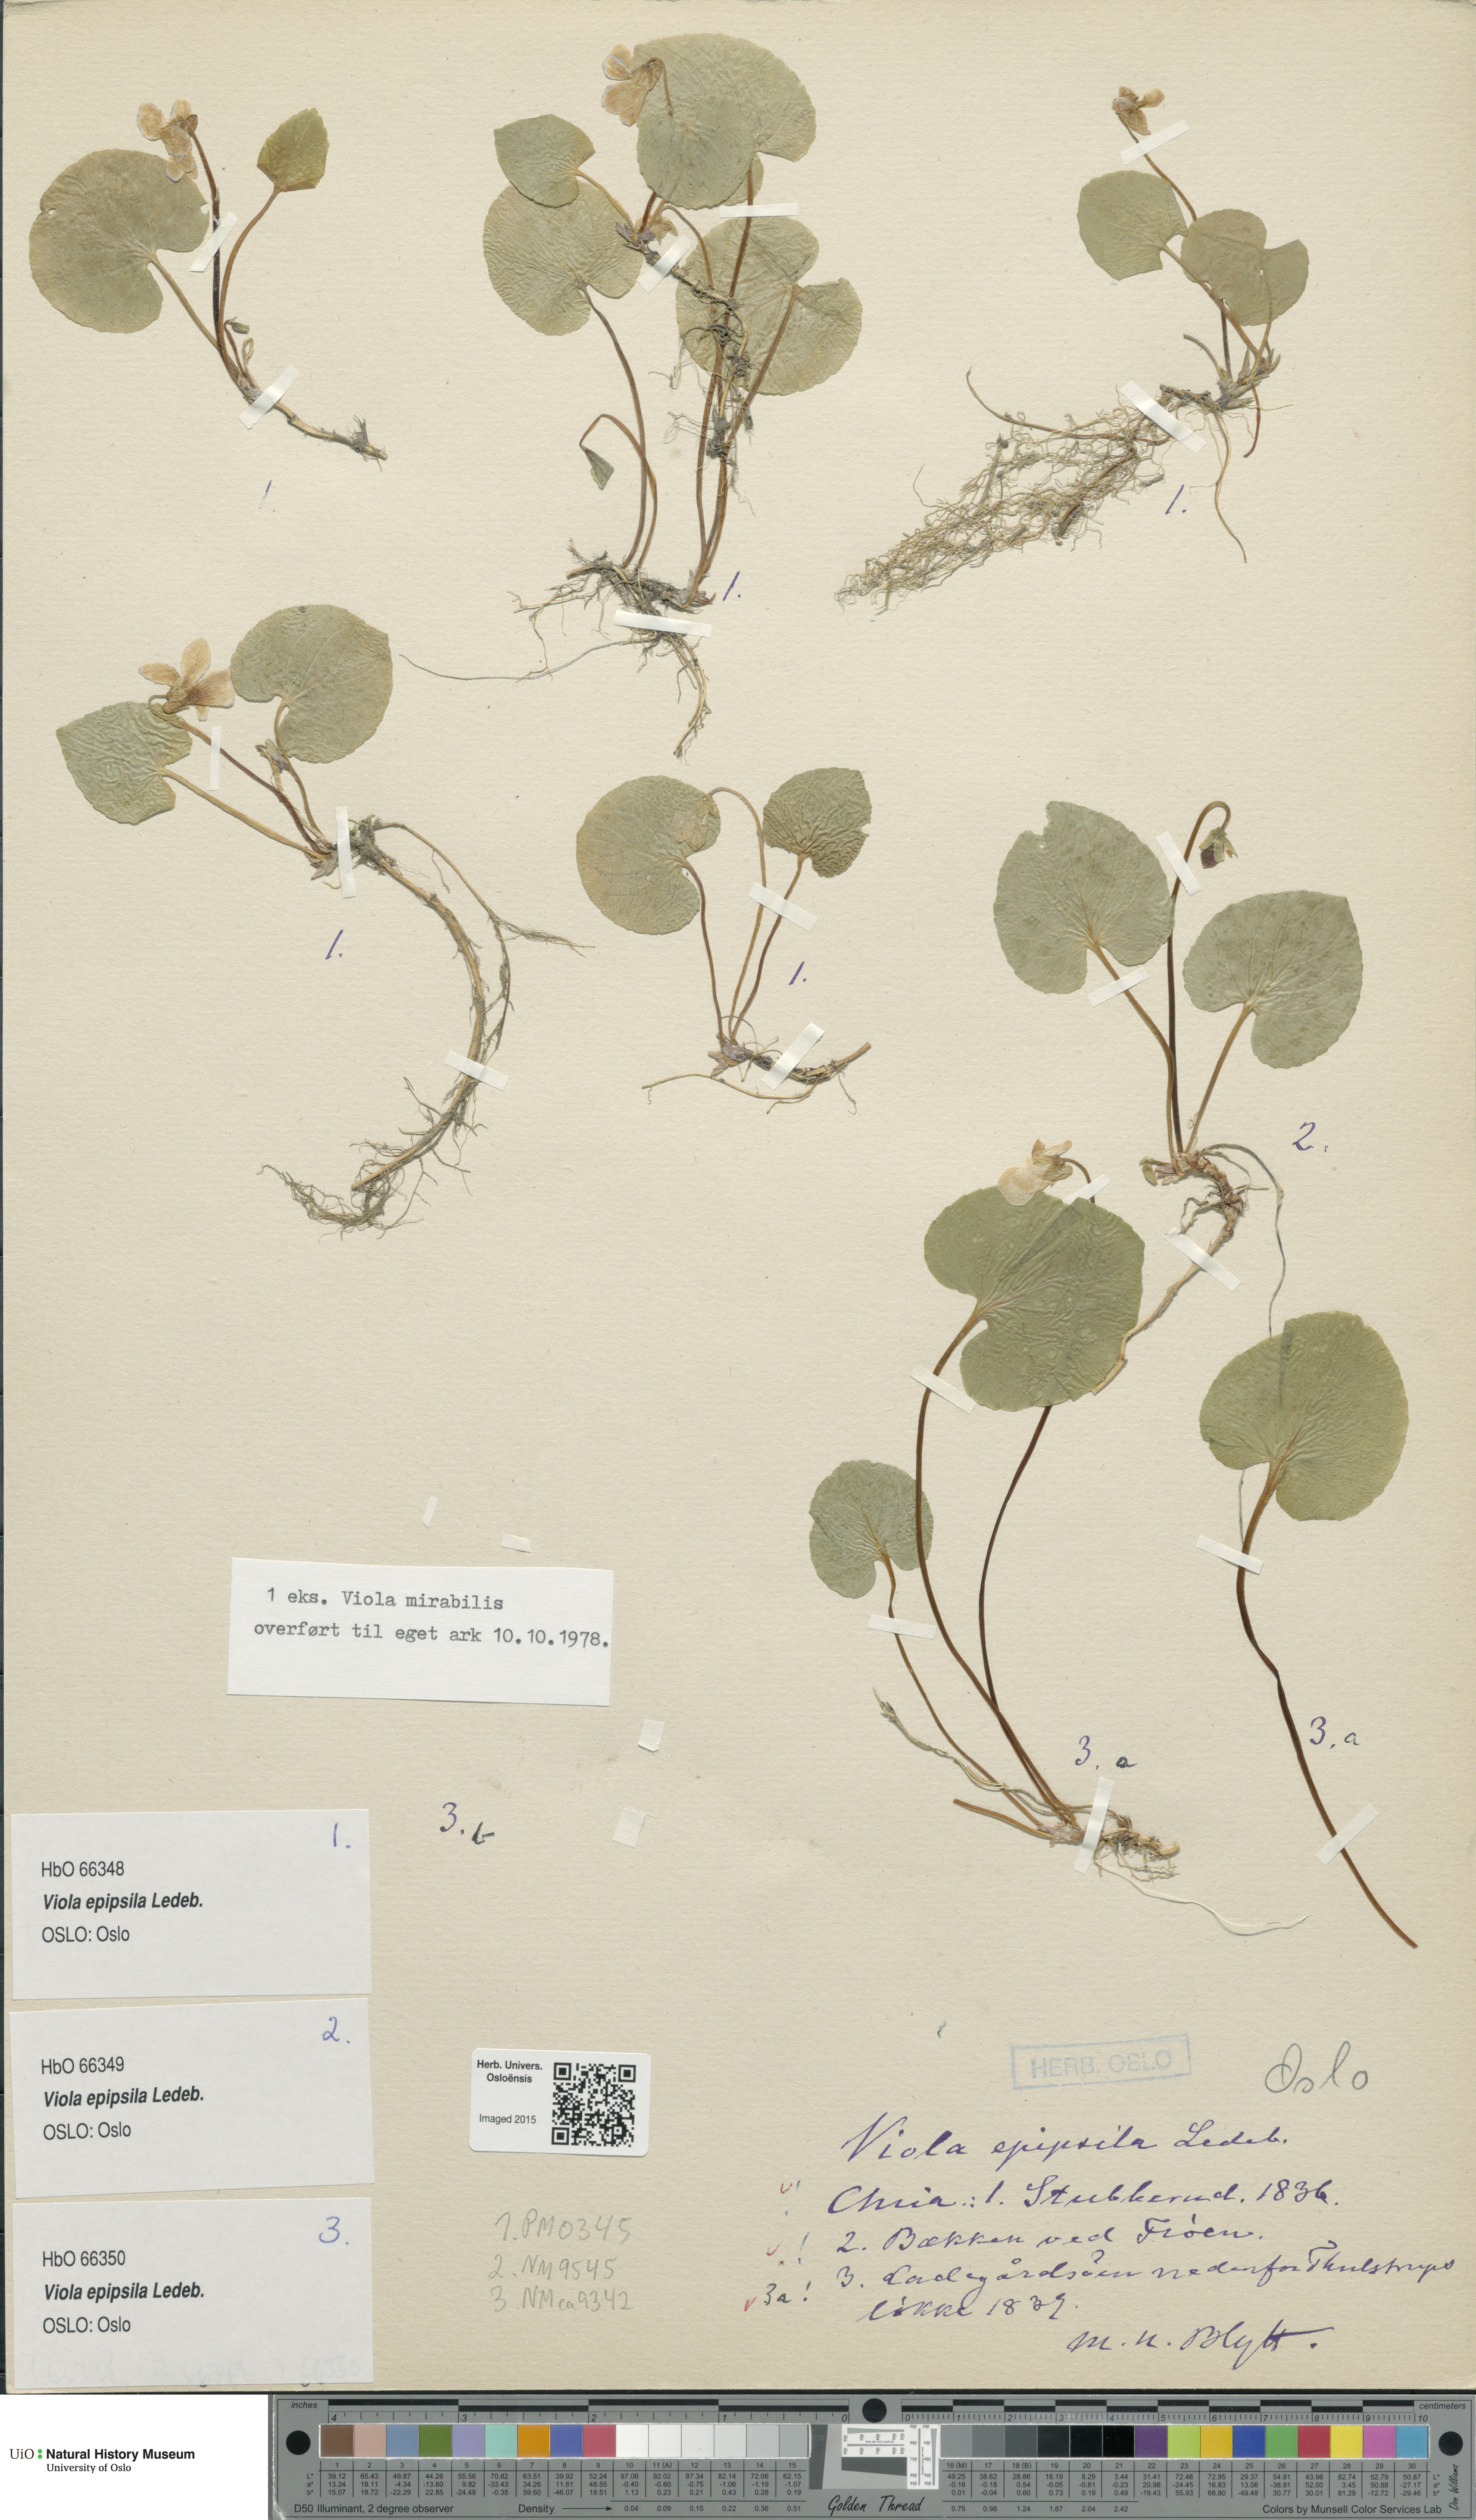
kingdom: Plantae
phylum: Tracheophyta
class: Magnoliopsida
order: Malpighiales
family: Violaceae
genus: Viola
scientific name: Viola epipsila
